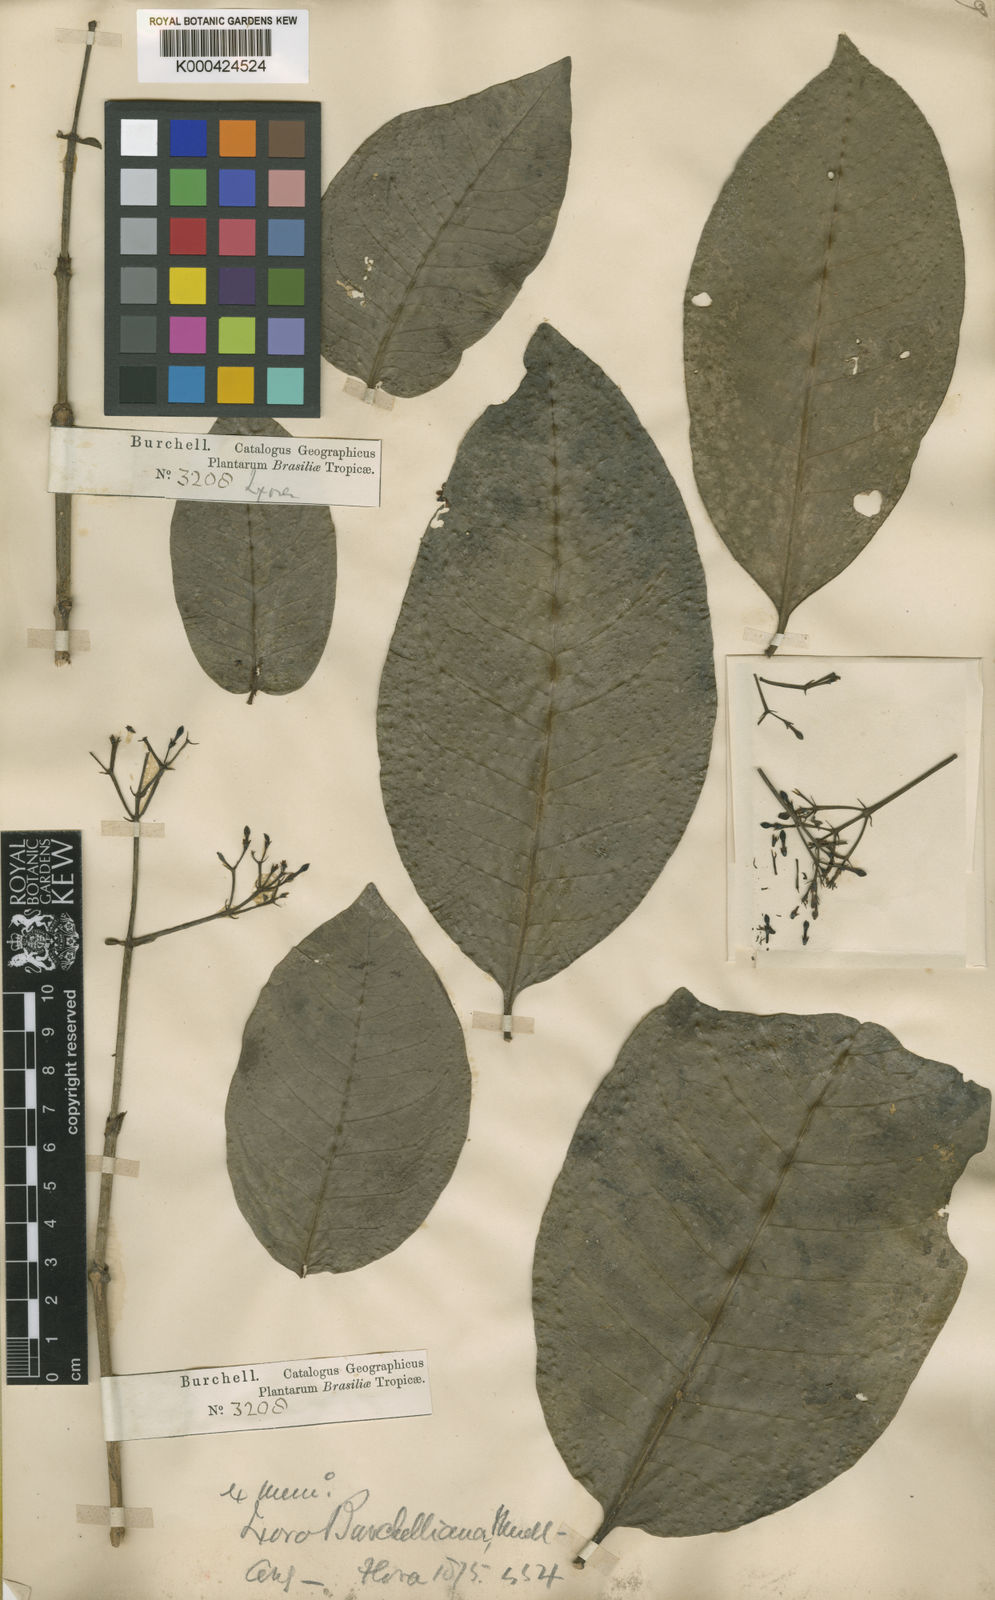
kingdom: Plantae
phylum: Tracheophyta
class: Magnoliopsida
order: Gentianales
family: Rubiaceae
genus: Ixora
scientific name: Ixora
